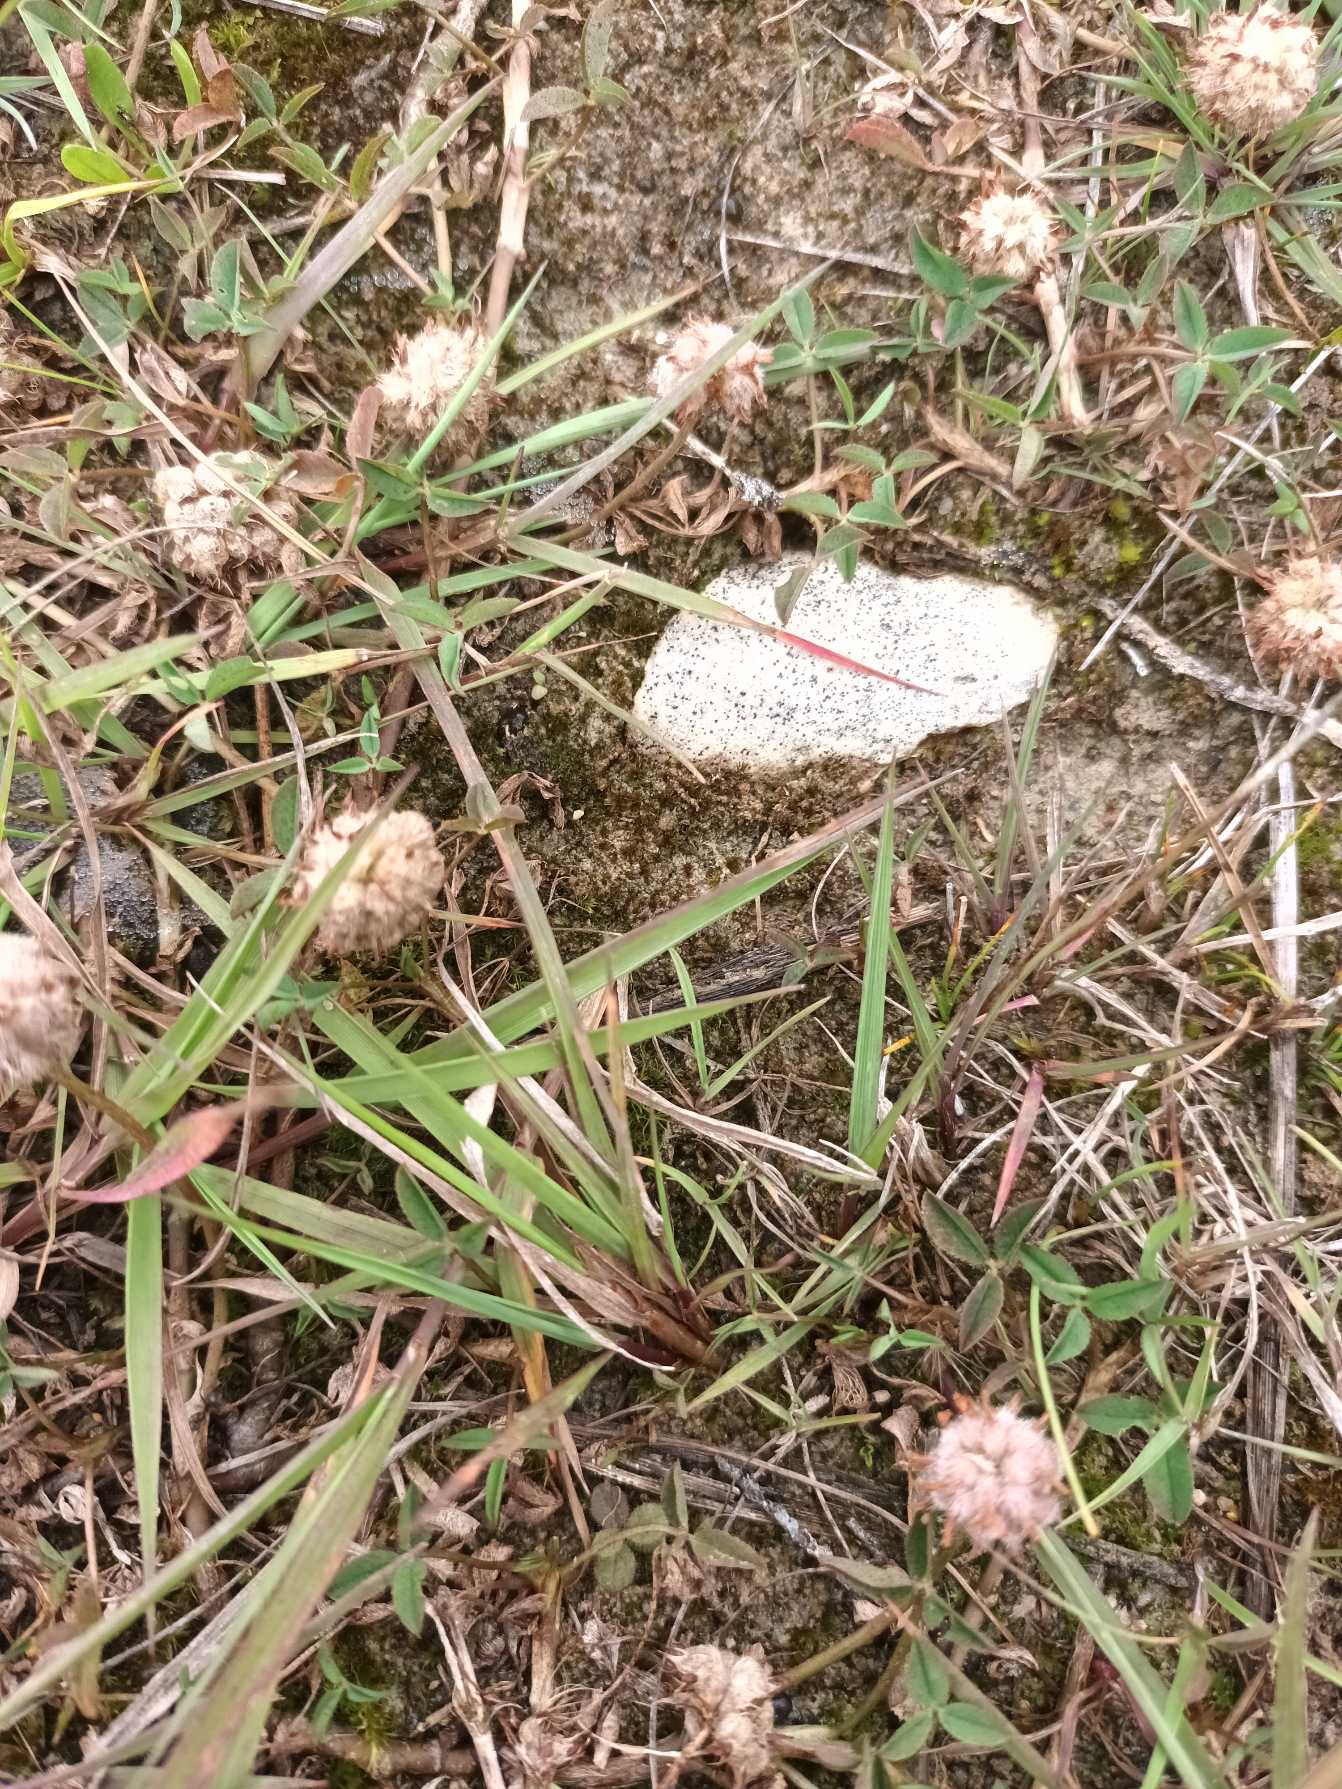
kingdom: Plantae
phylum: Tracheophyta
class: Magnoliopsida
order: Fabales
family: Fabaceae
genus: Trifolium
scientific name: Trifolium fragiferum
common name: Jordbær-kløver
